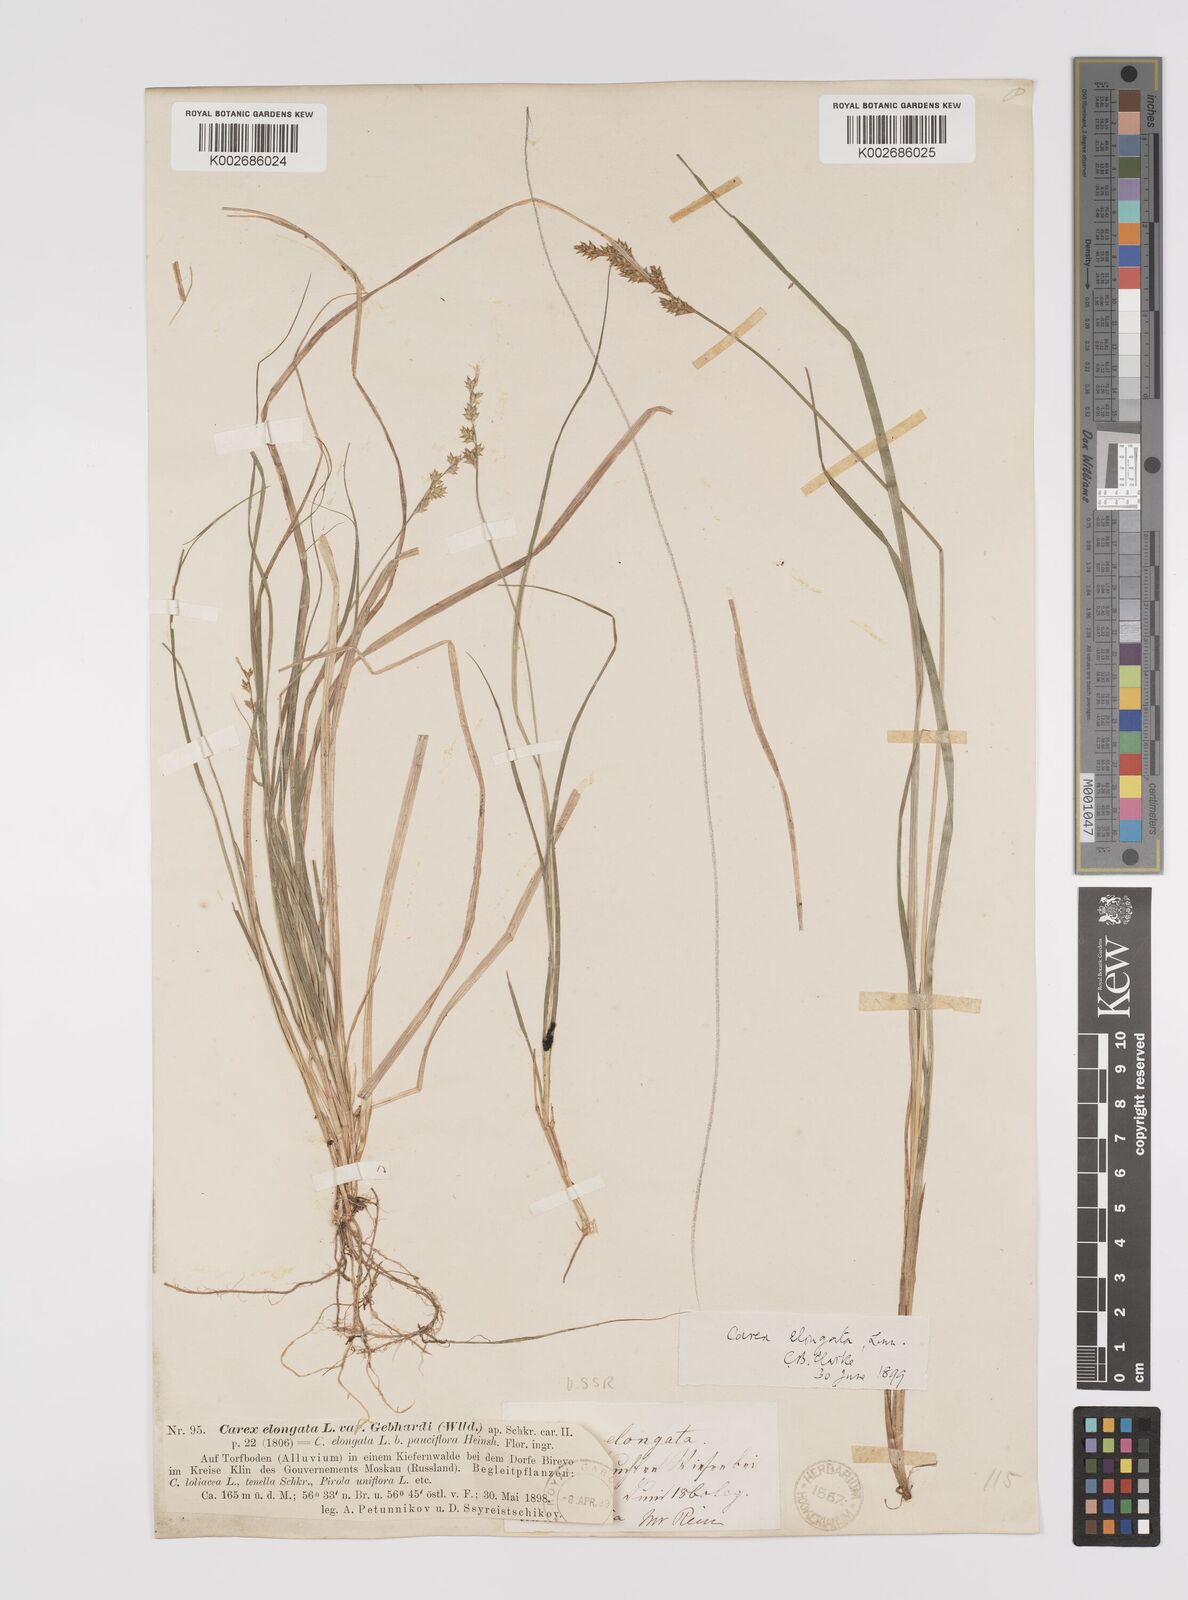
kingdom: Plantae
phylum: Tracheophyta
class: Liliopsida
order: Poales
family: Cyperaceae
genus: Carex
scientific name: Carex elongata
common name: Elongated sedge
